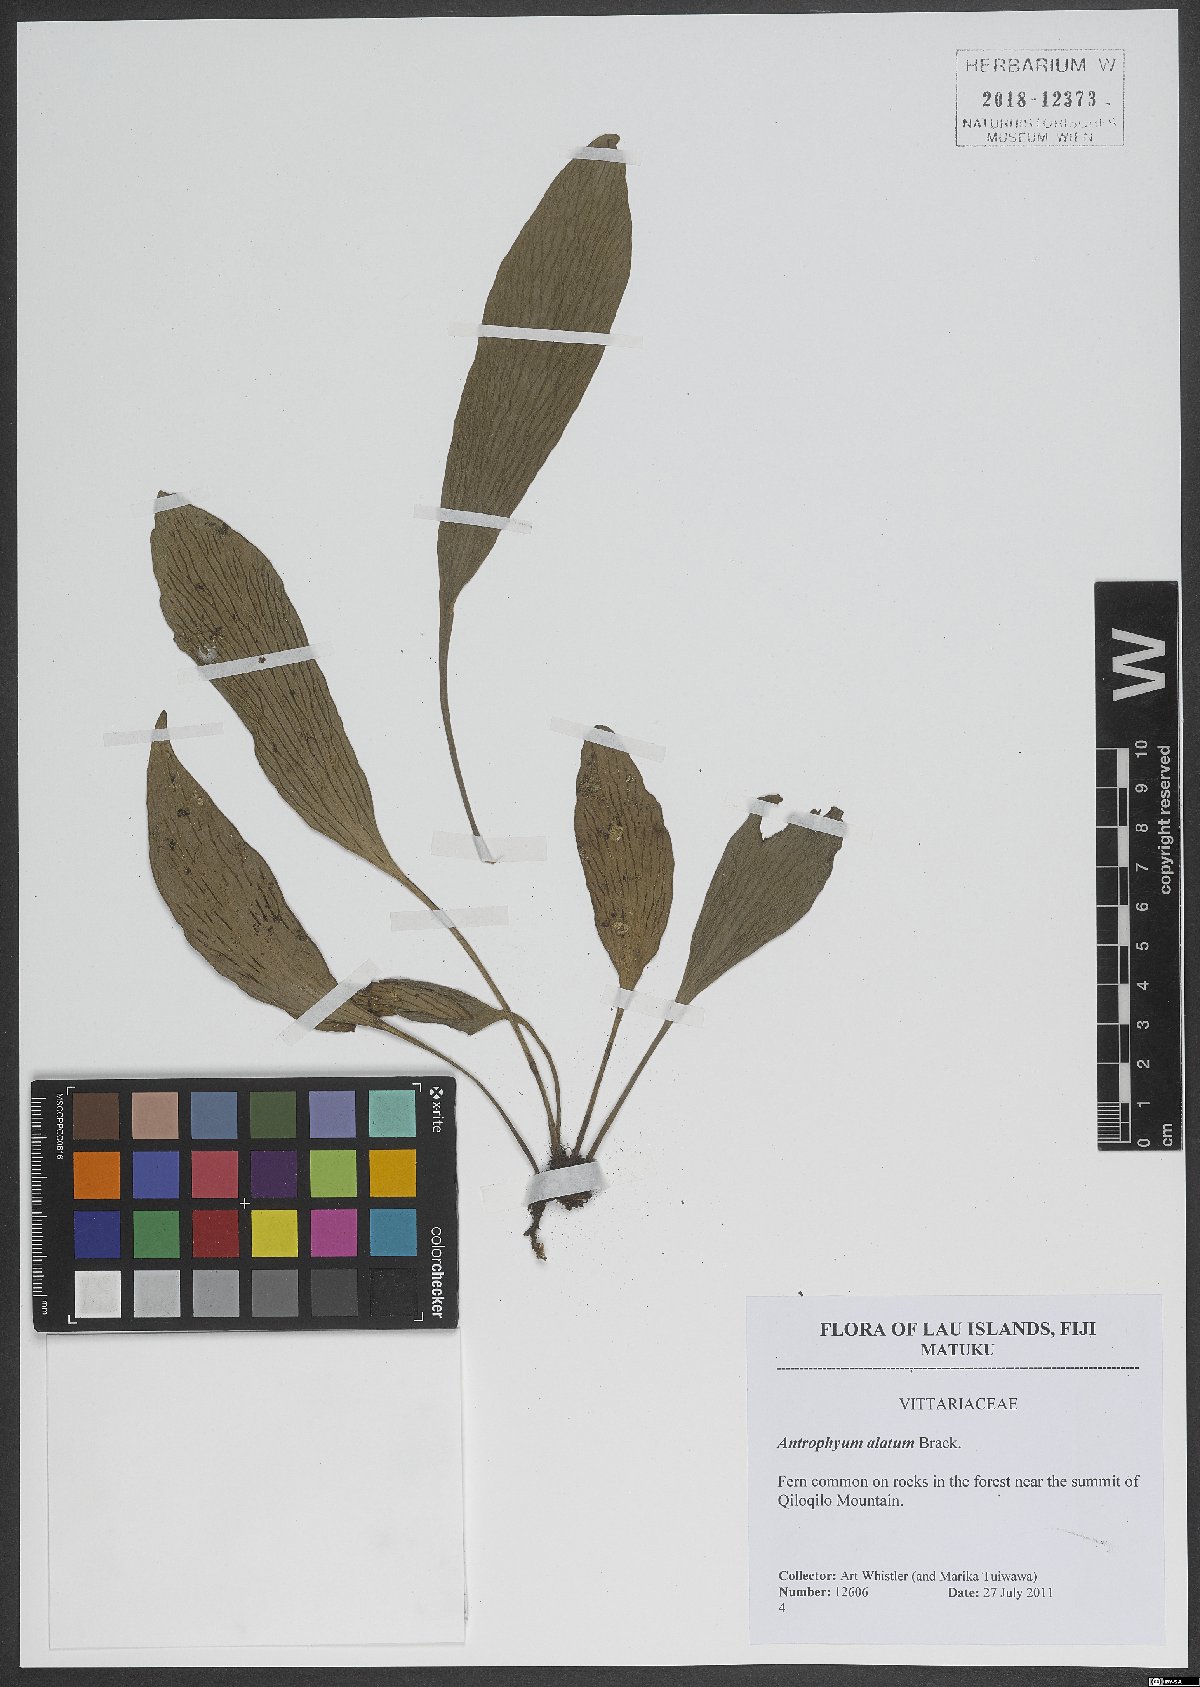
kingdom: Plantae
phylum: Tracheophyta
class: Polypodiopsida
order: Polypodiales
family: Pteridaceae
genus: Antrophyum
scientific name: Antrophyum callifolium
